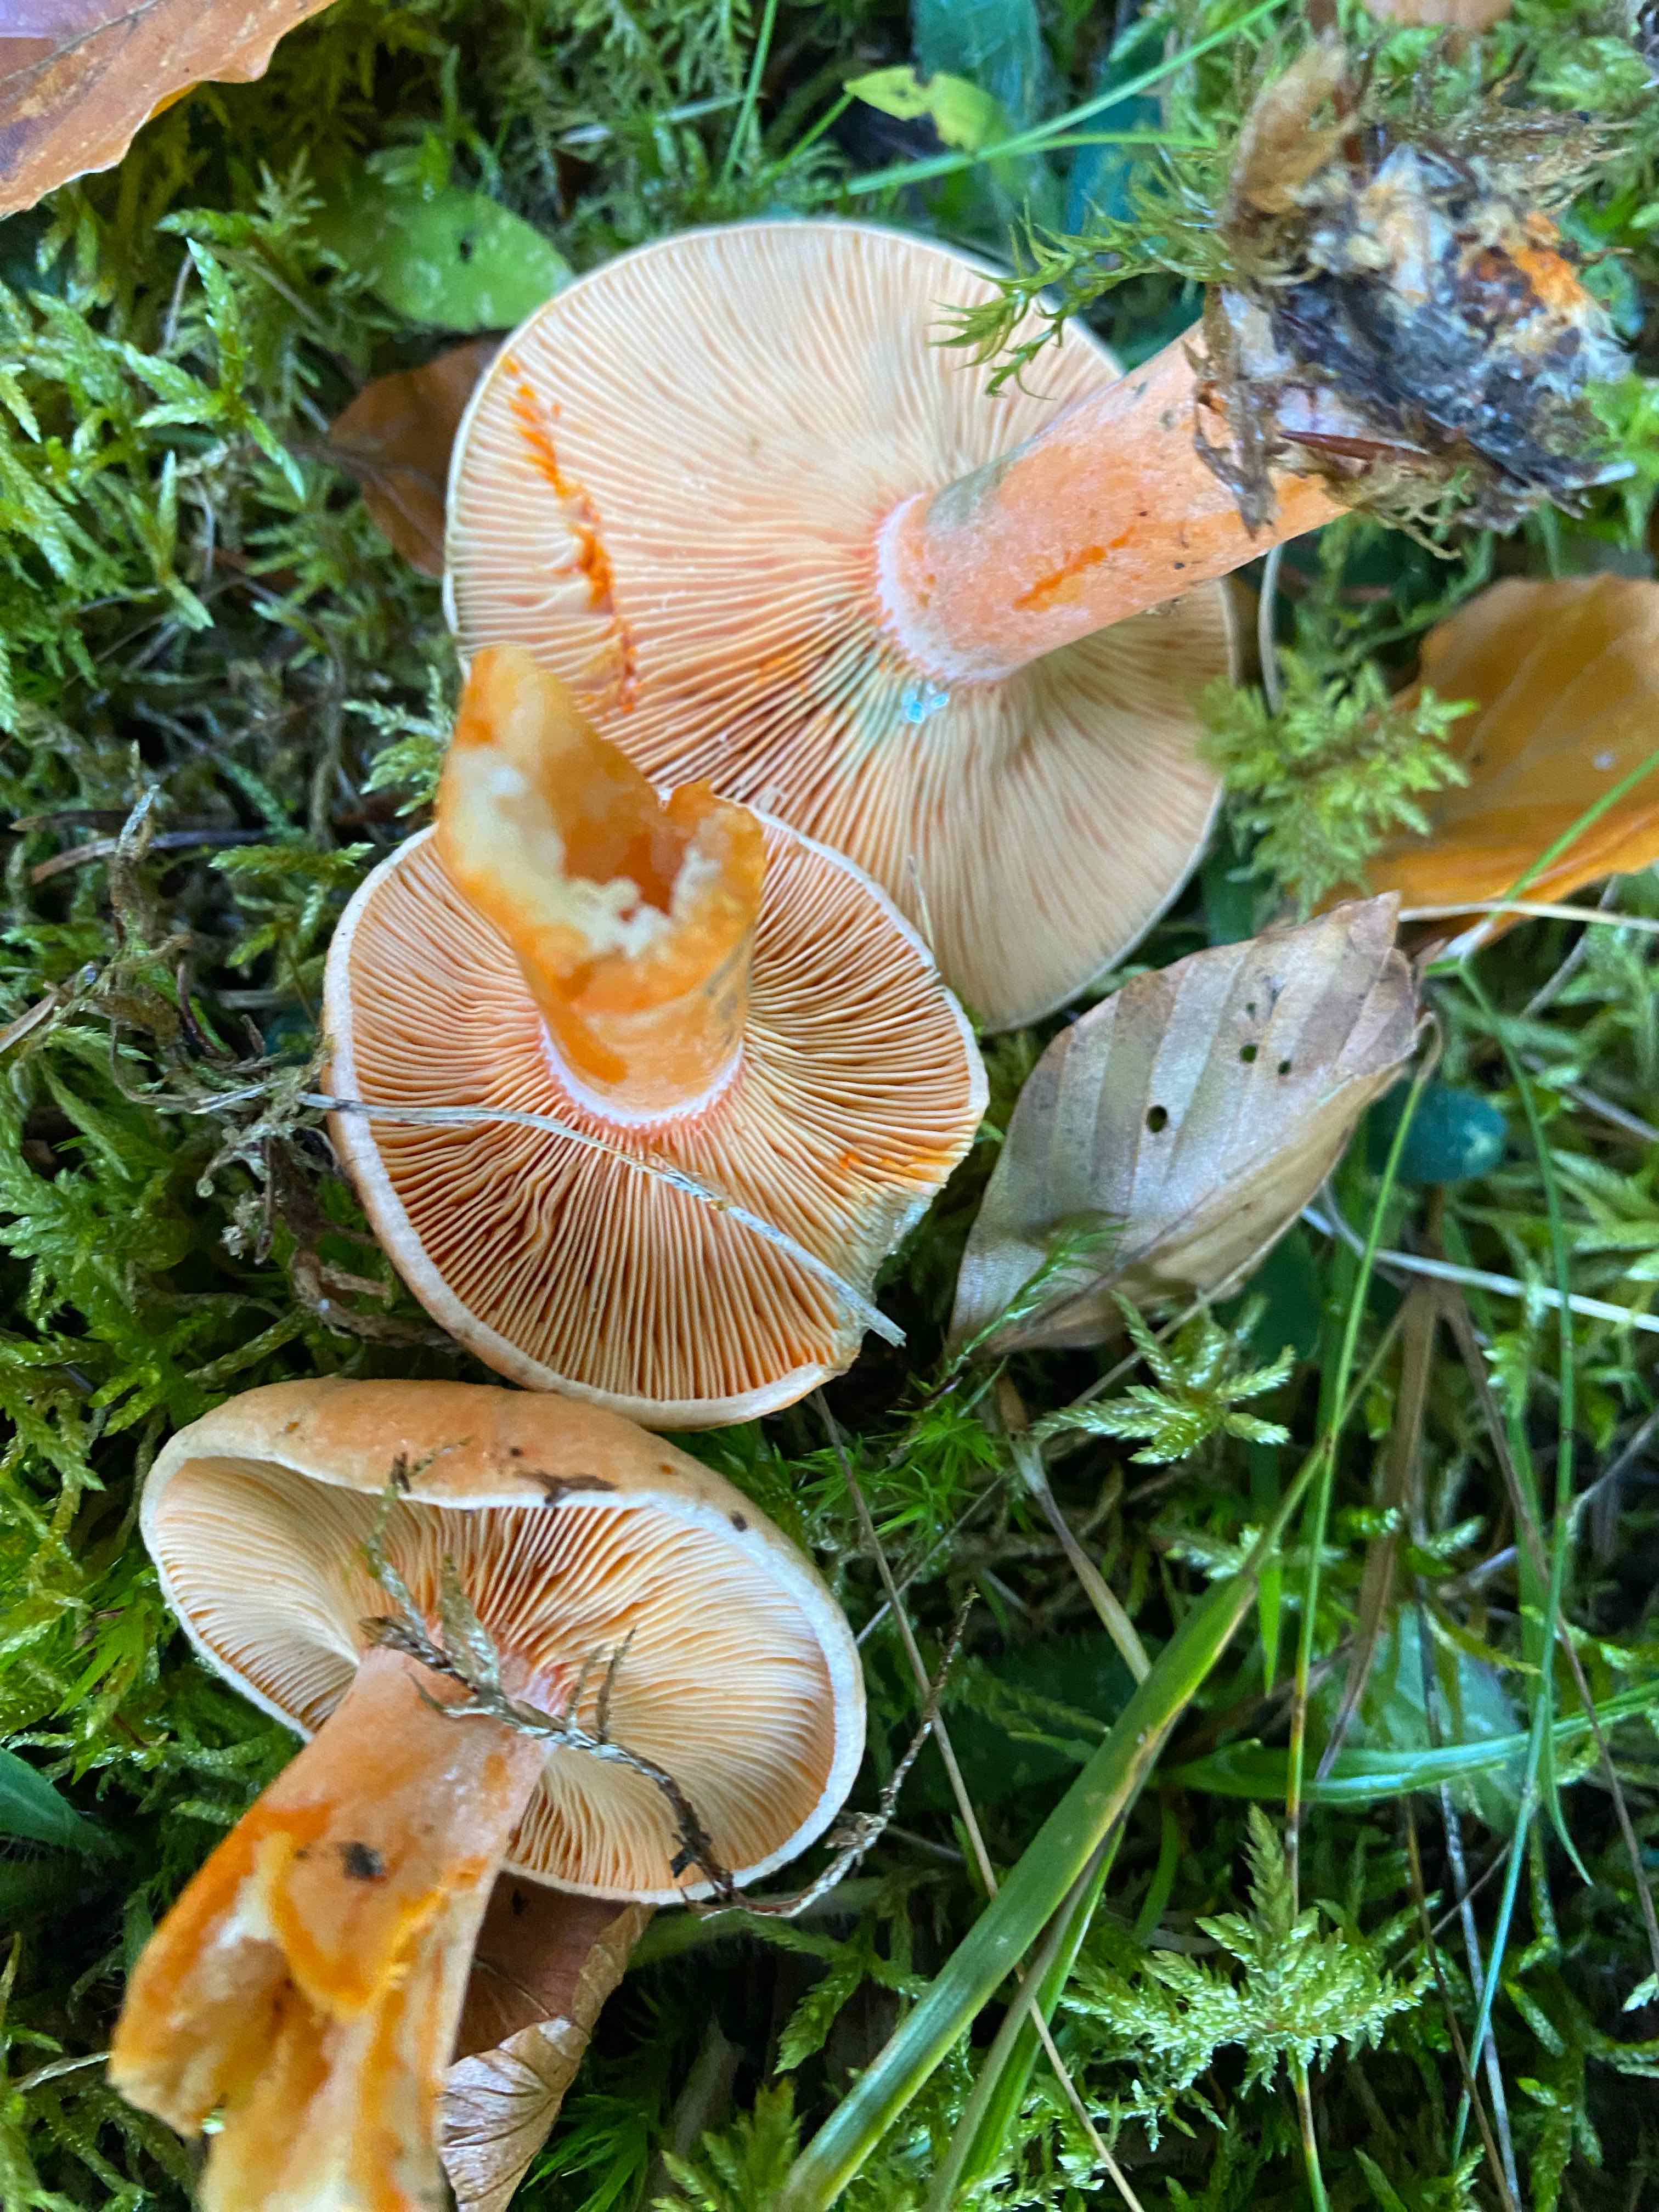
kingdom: Fungi
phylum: Basidiomycota
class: Agaricomycetes
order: Russulales
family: Russulaceae
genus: Lactarius
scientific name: Lactarius deterrimus
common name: gran-mælkehat
